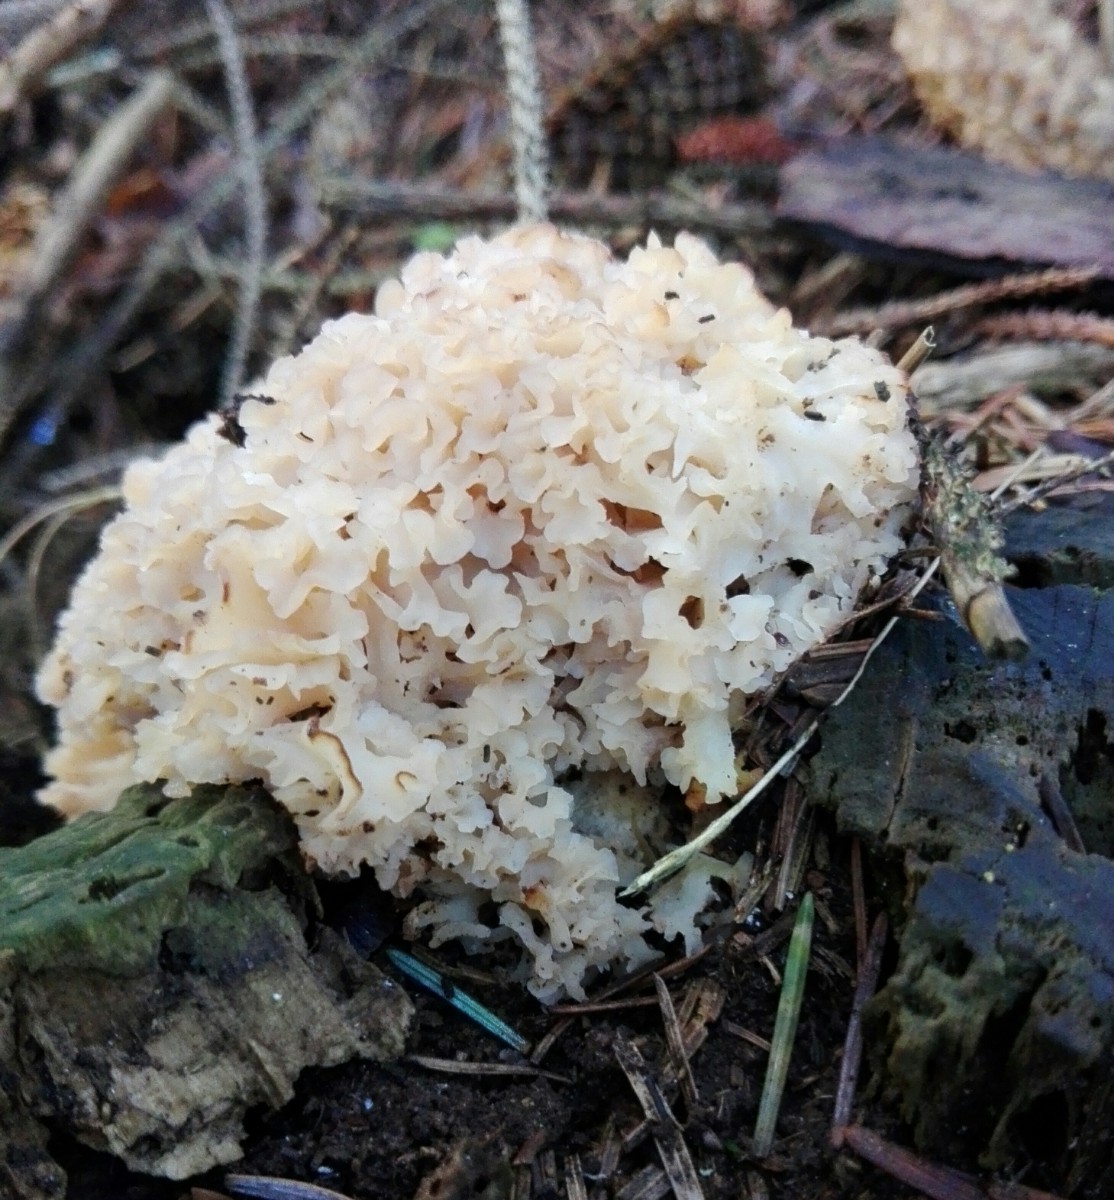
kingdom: Fungi
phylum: Basidiomycota
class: Agaricomycetes
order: Polyporales
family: Sparassidaceae
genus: Sparassis
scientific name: Sparassis crispa
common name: kruset blomkålssvamp
